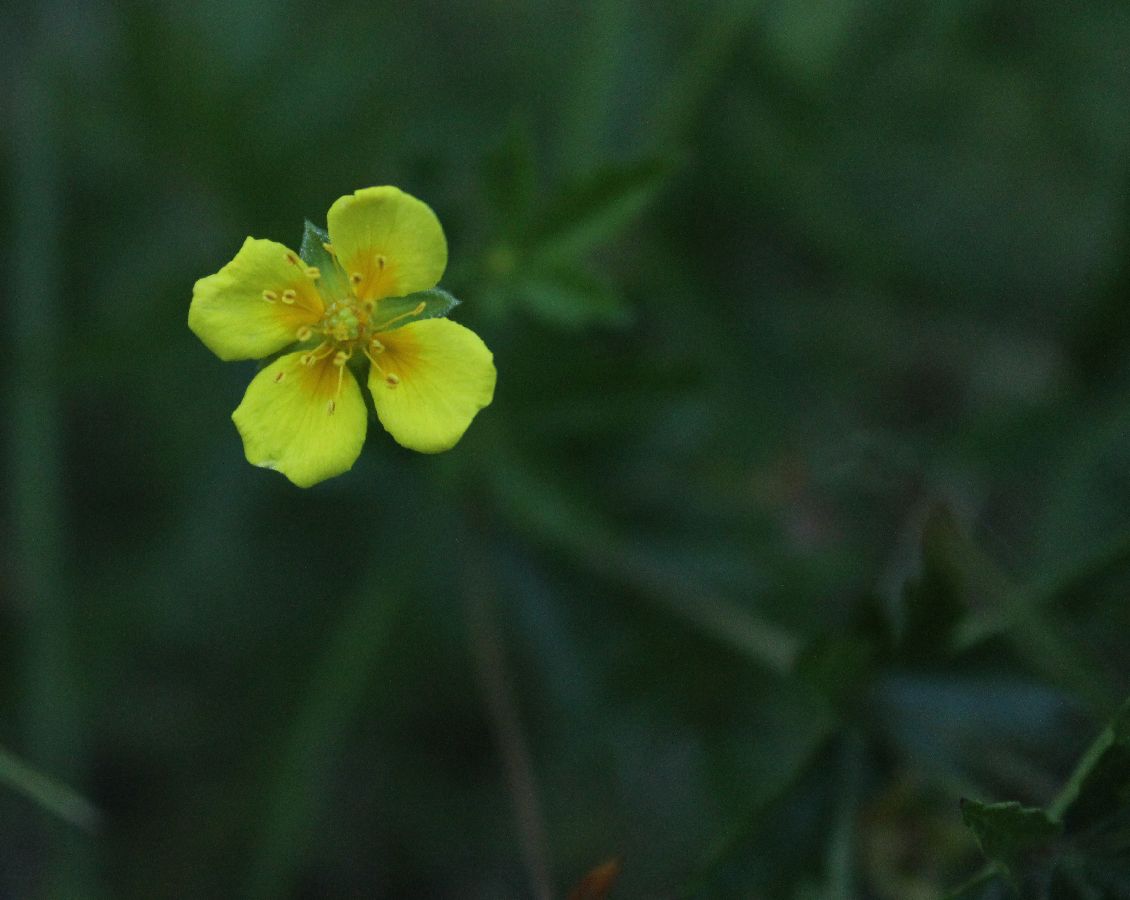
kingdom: Plantae
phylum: Tracheophyta
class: Magnoliopsida
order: Rosales
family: Rosaceae
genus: Potentilla
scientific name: Potentilla erecta
